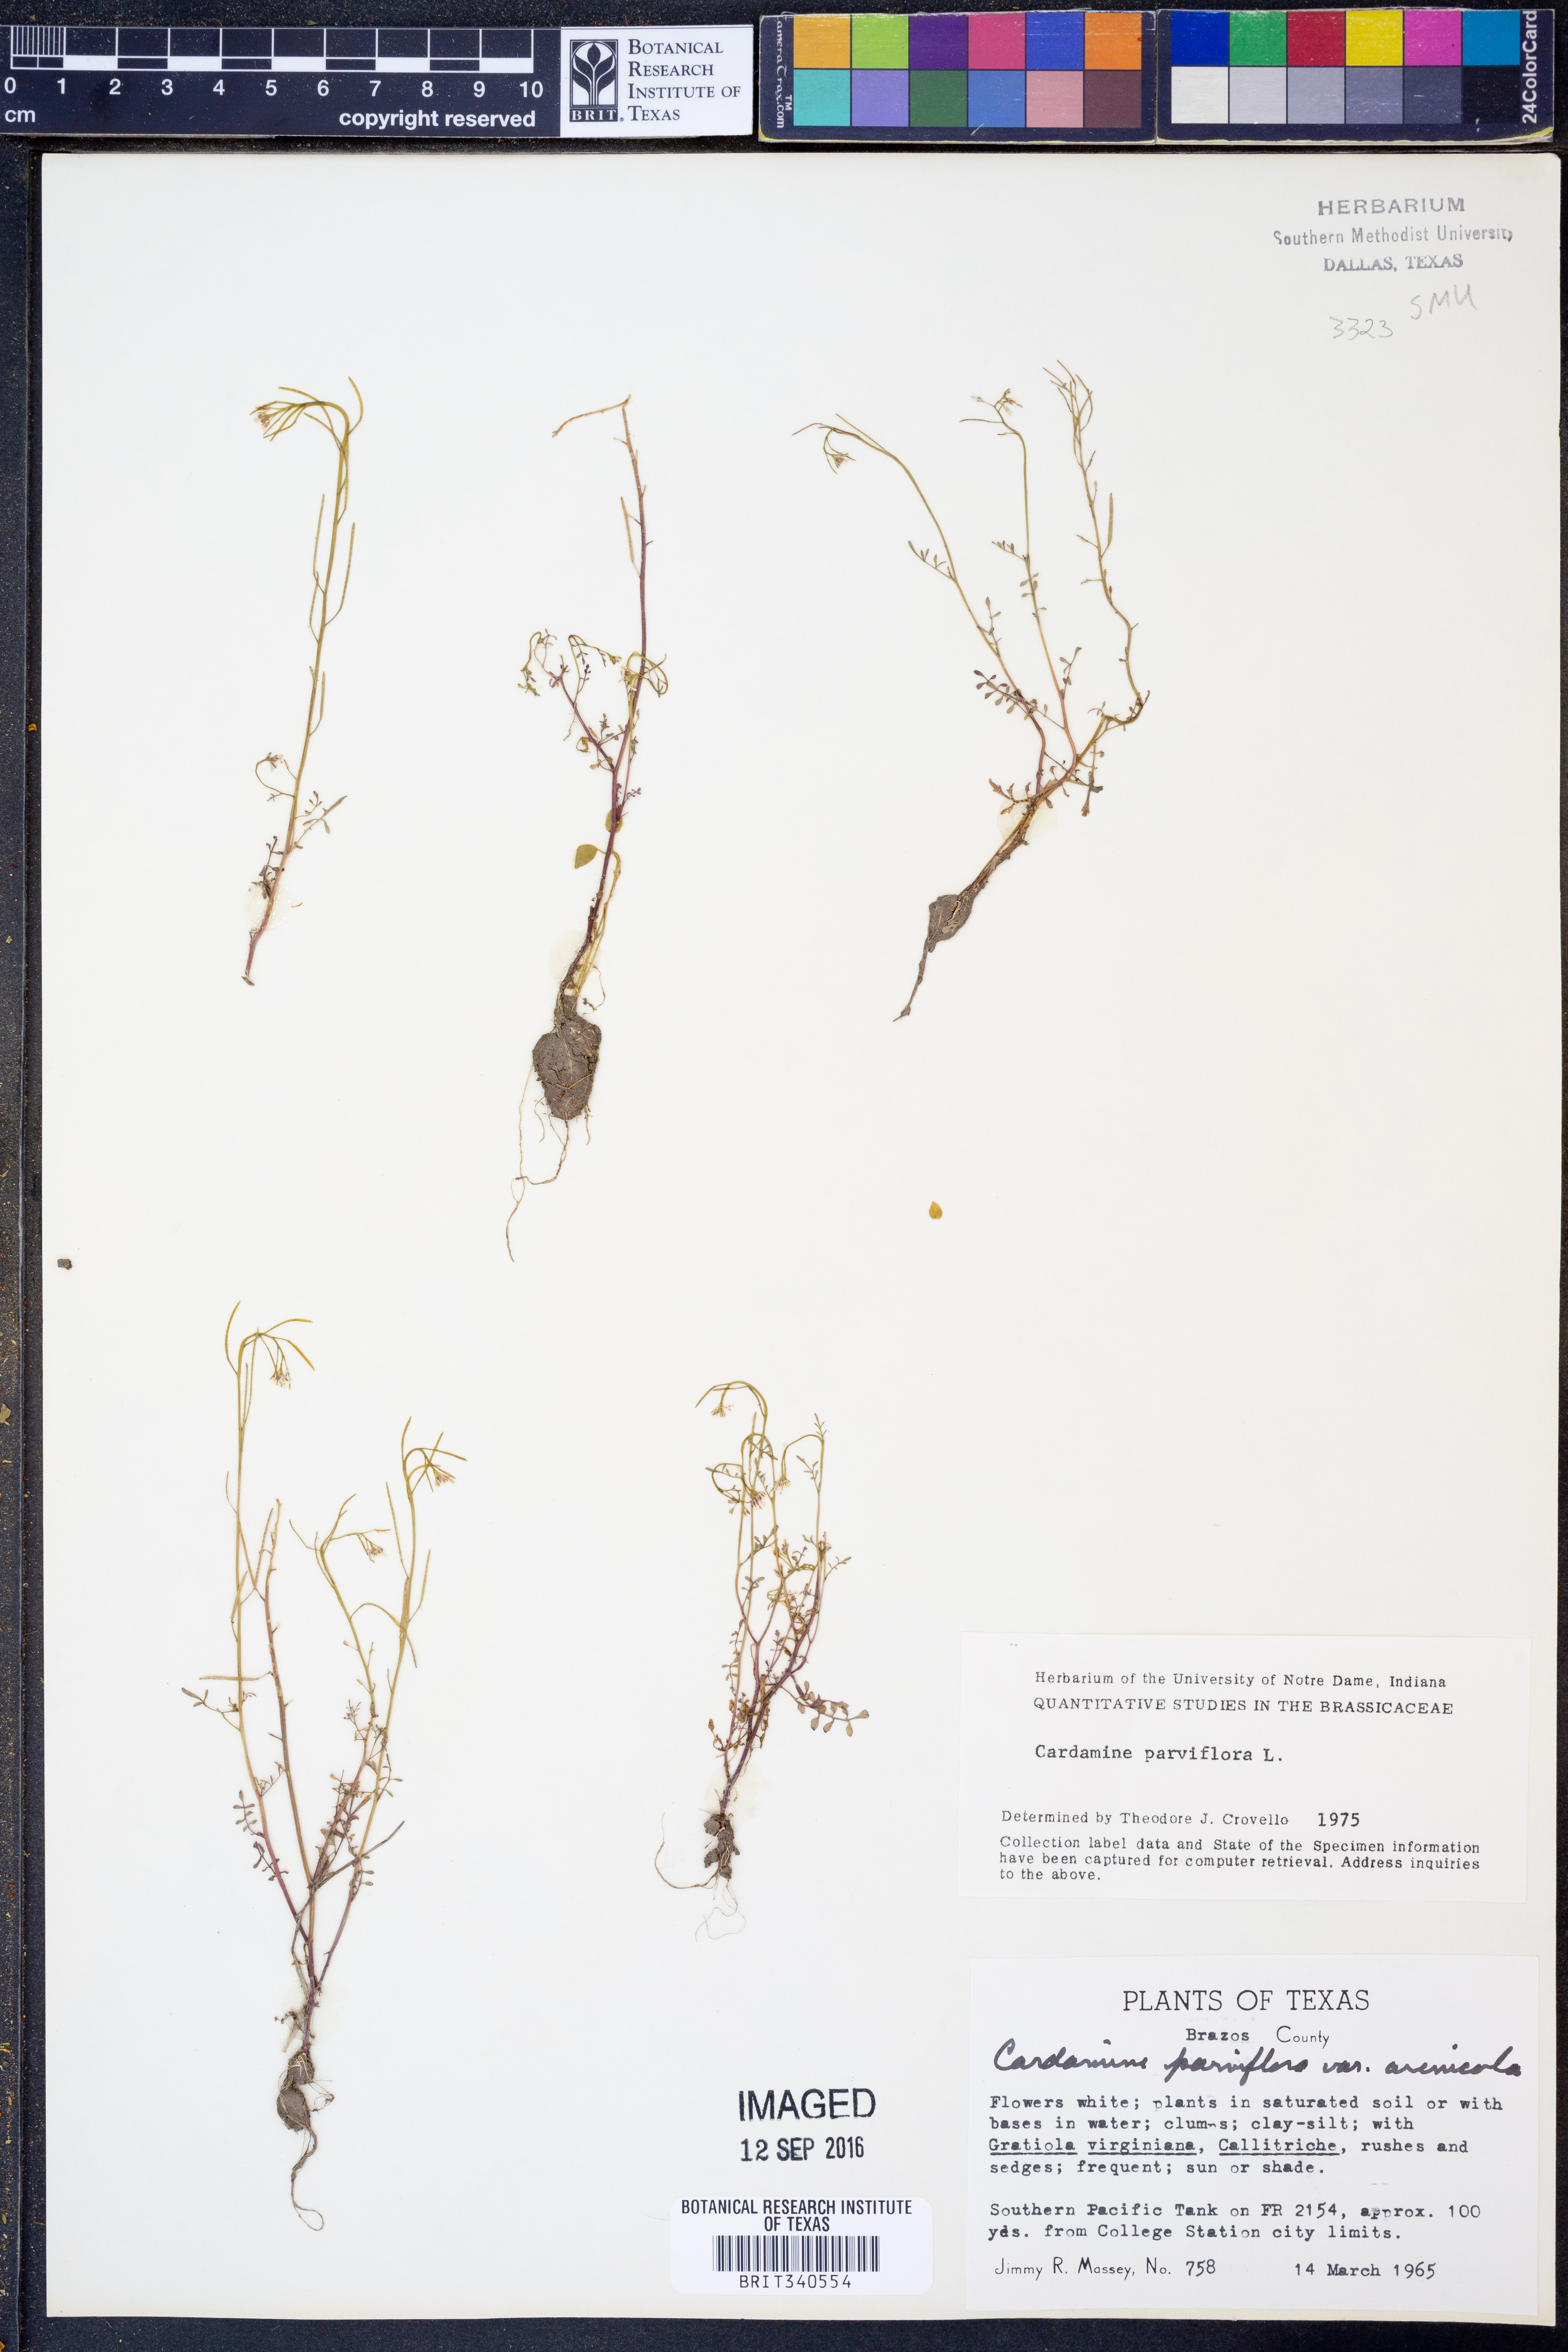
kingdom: Plantae
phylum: Tracheophyta
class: Magnoliopsida
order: Brassicales
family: Brassicaceae
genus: Cardamine
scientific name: Cardamine parviflora
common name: Sand bittercress
